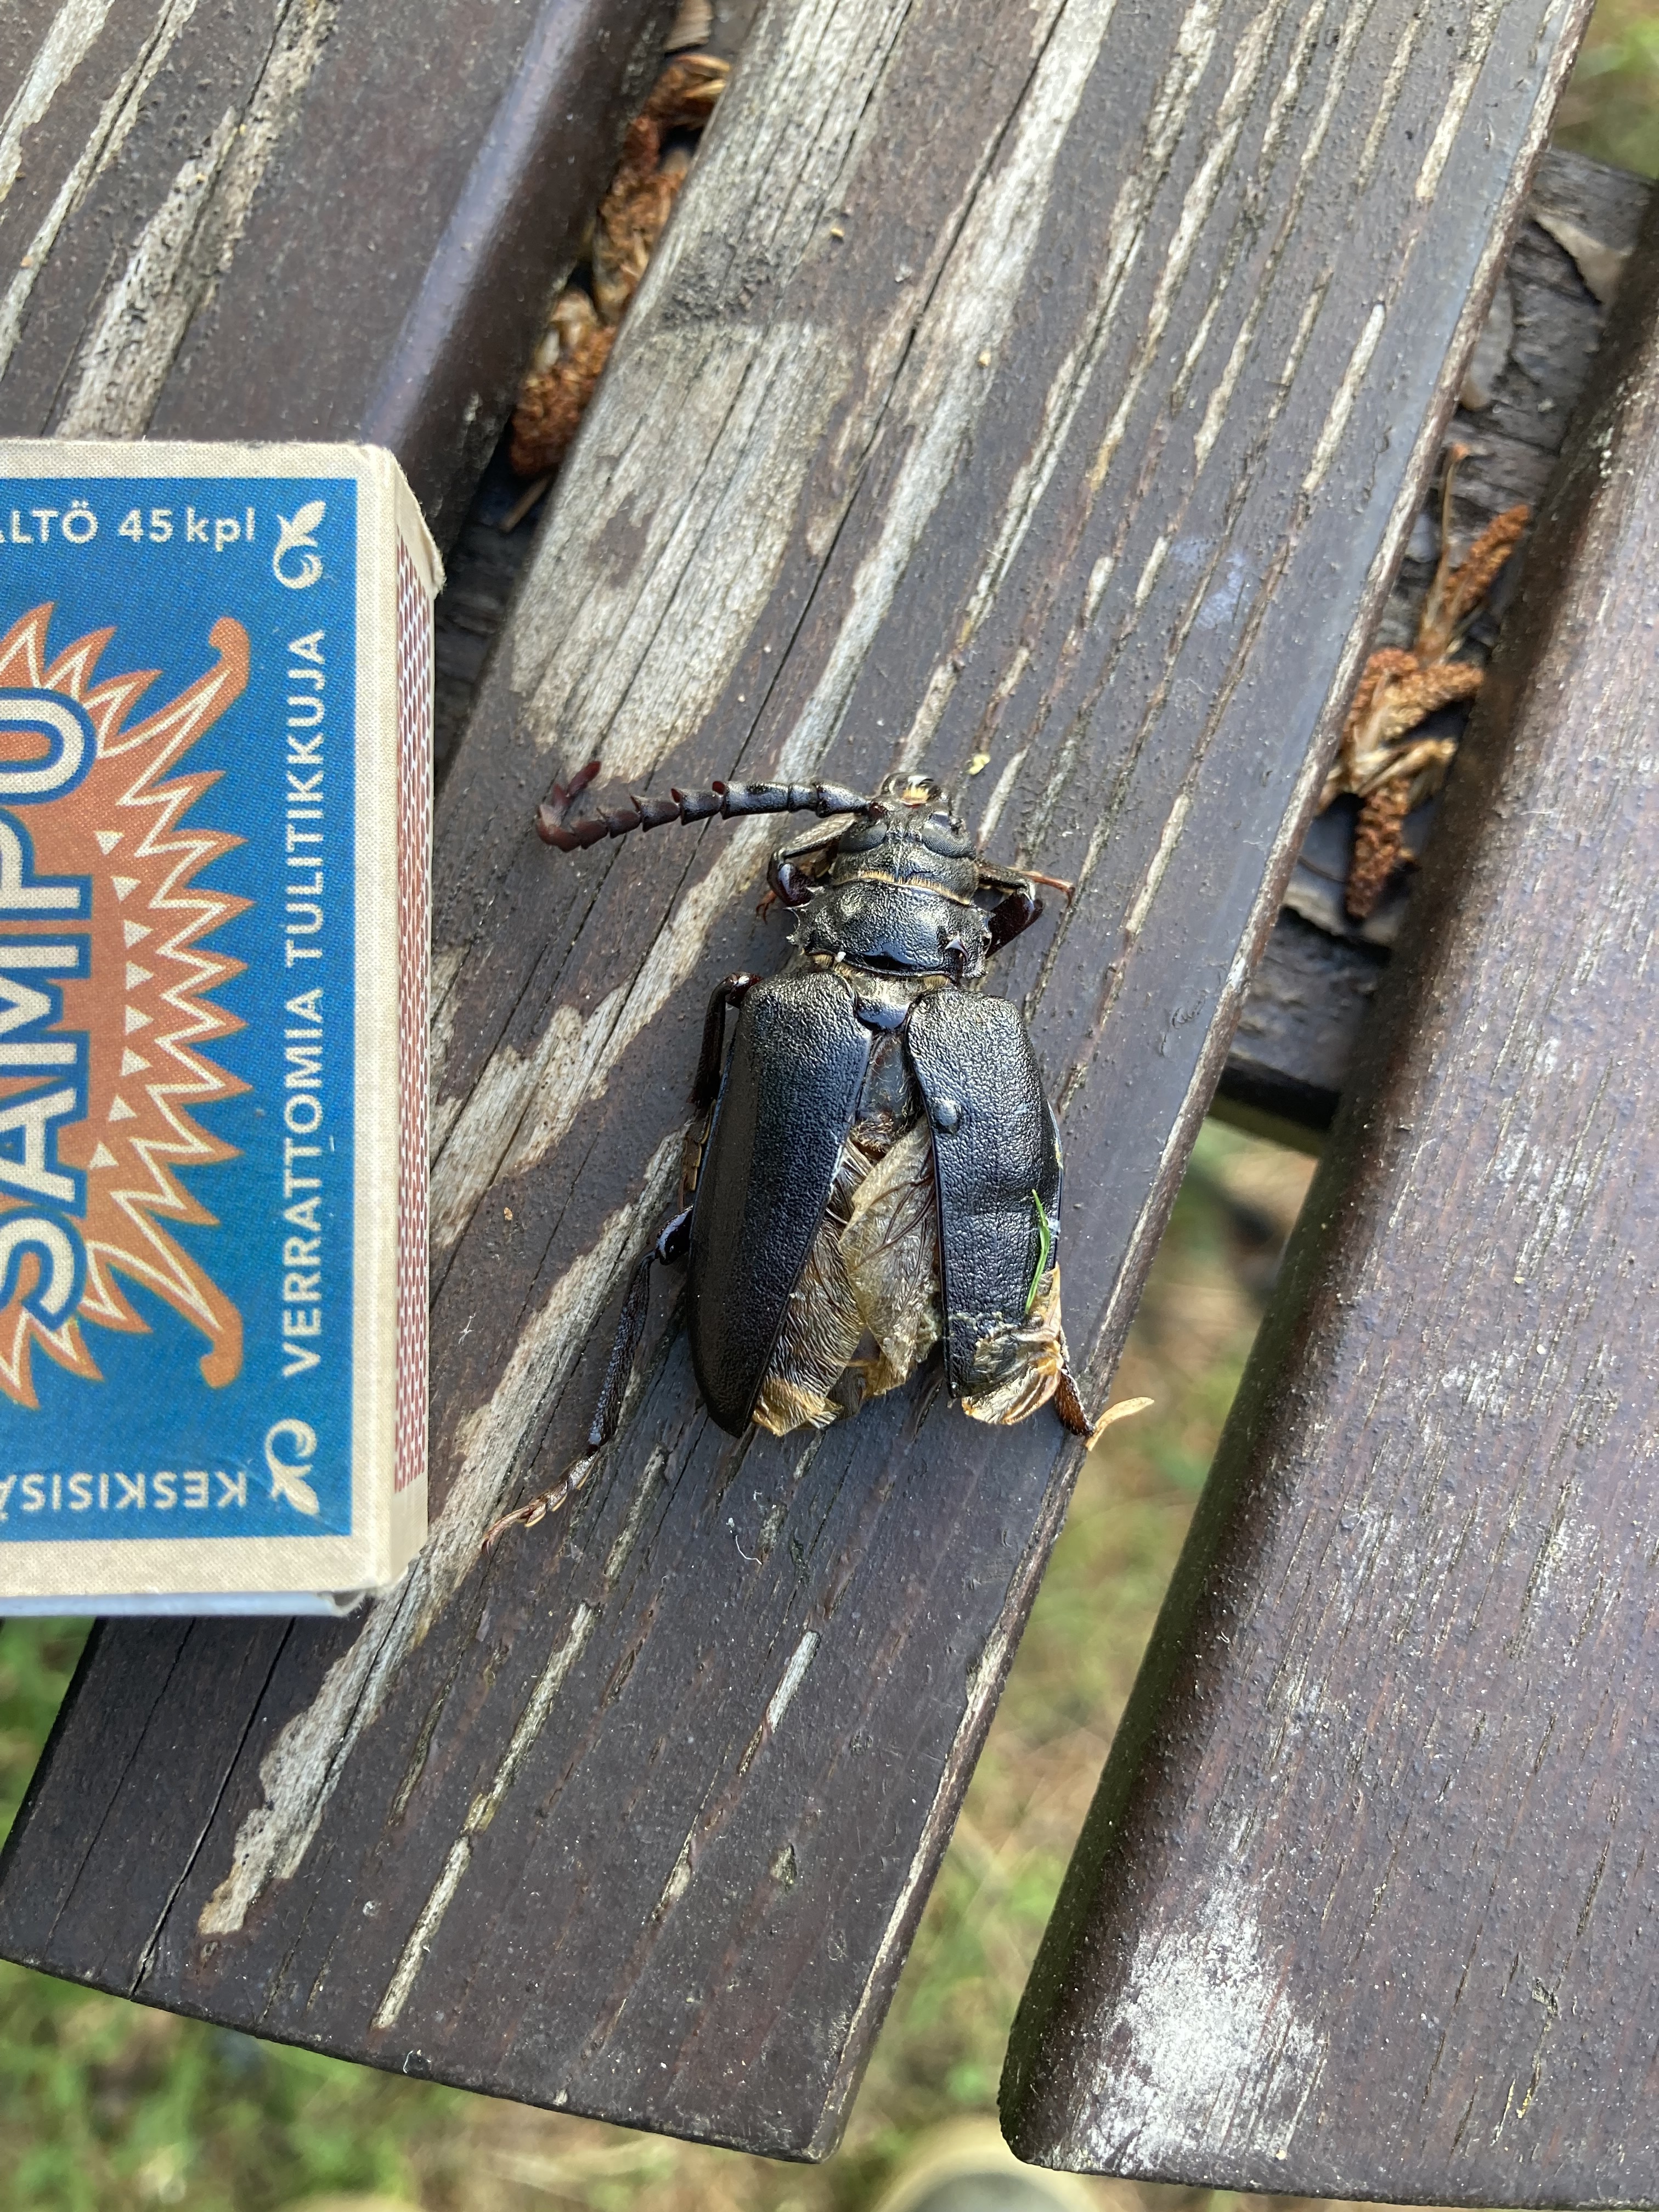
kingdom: Animalia
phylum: Arthropoda
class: Insecta
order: Coleoptera
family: Cerambycidae
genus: Prionus
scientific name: Prionus coriarius
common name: Tanner beetle
